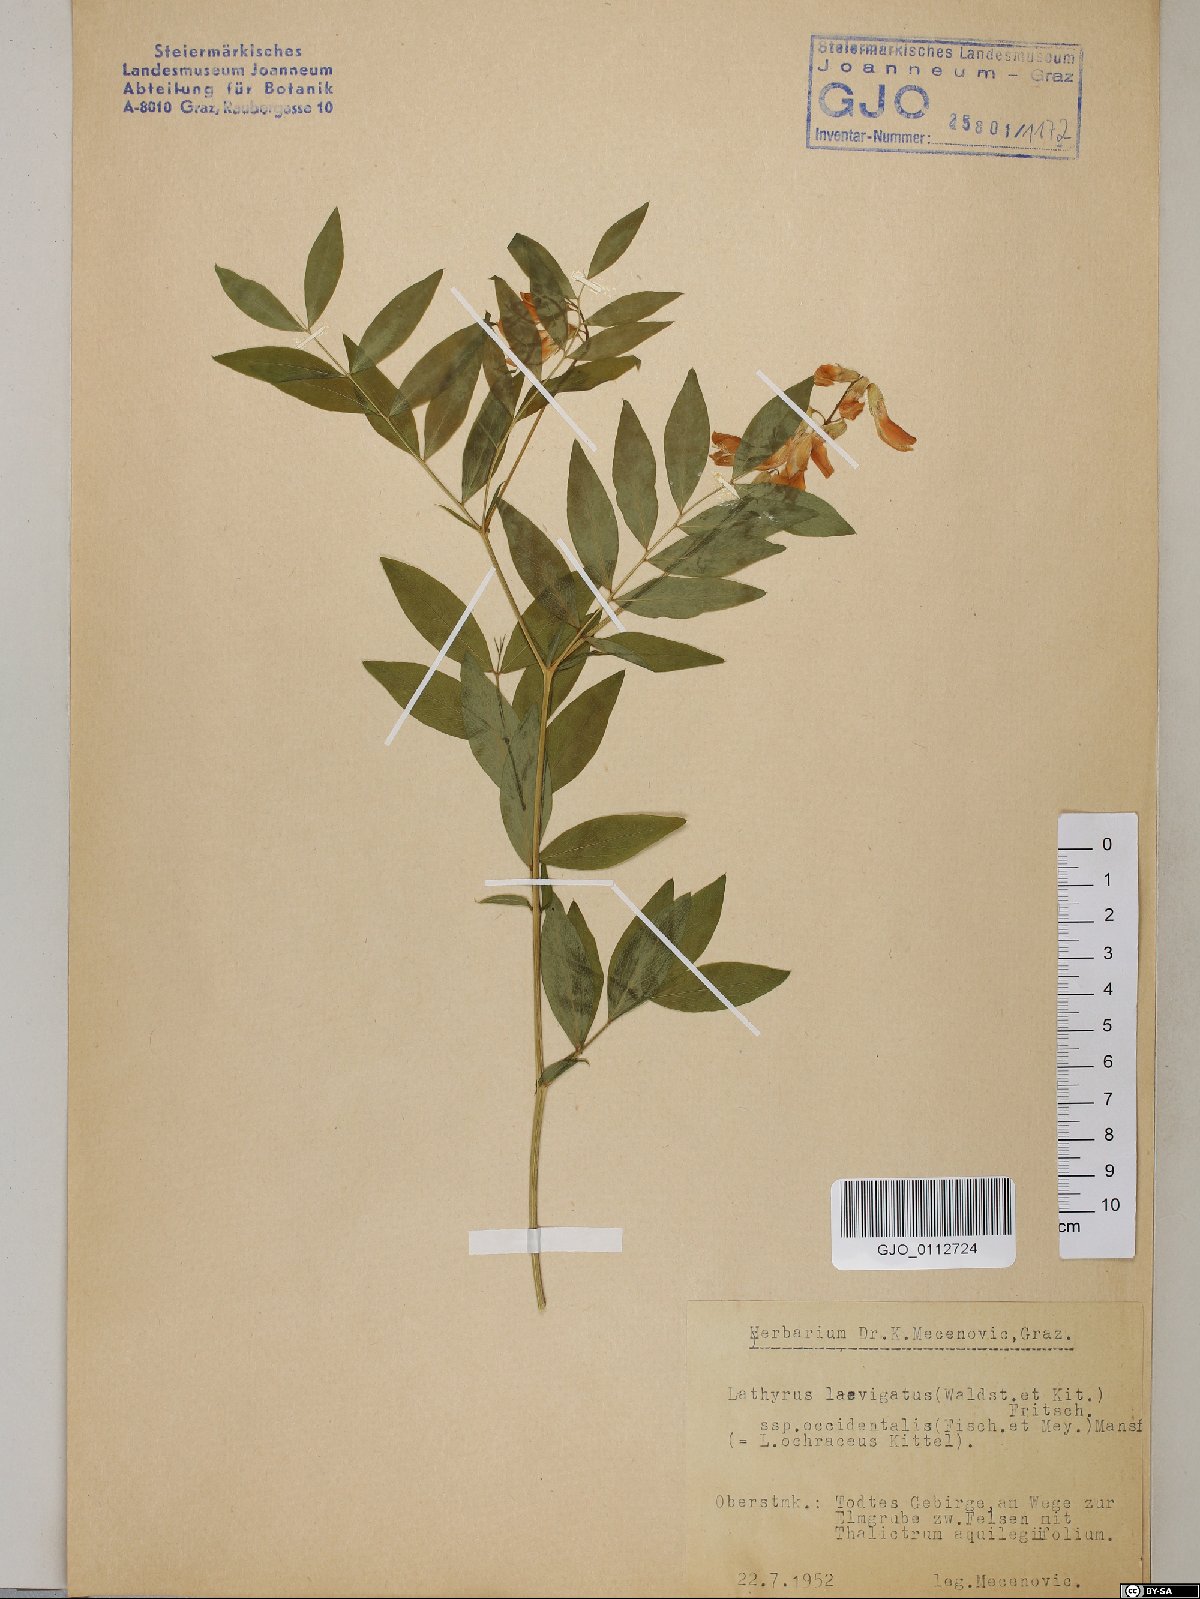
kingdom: Plantae
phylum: Tracheophyta
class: Magnoliopsida
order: Fabales
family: Fabaceae
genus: Lathyrus
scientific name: Lathyrus laevigatus
